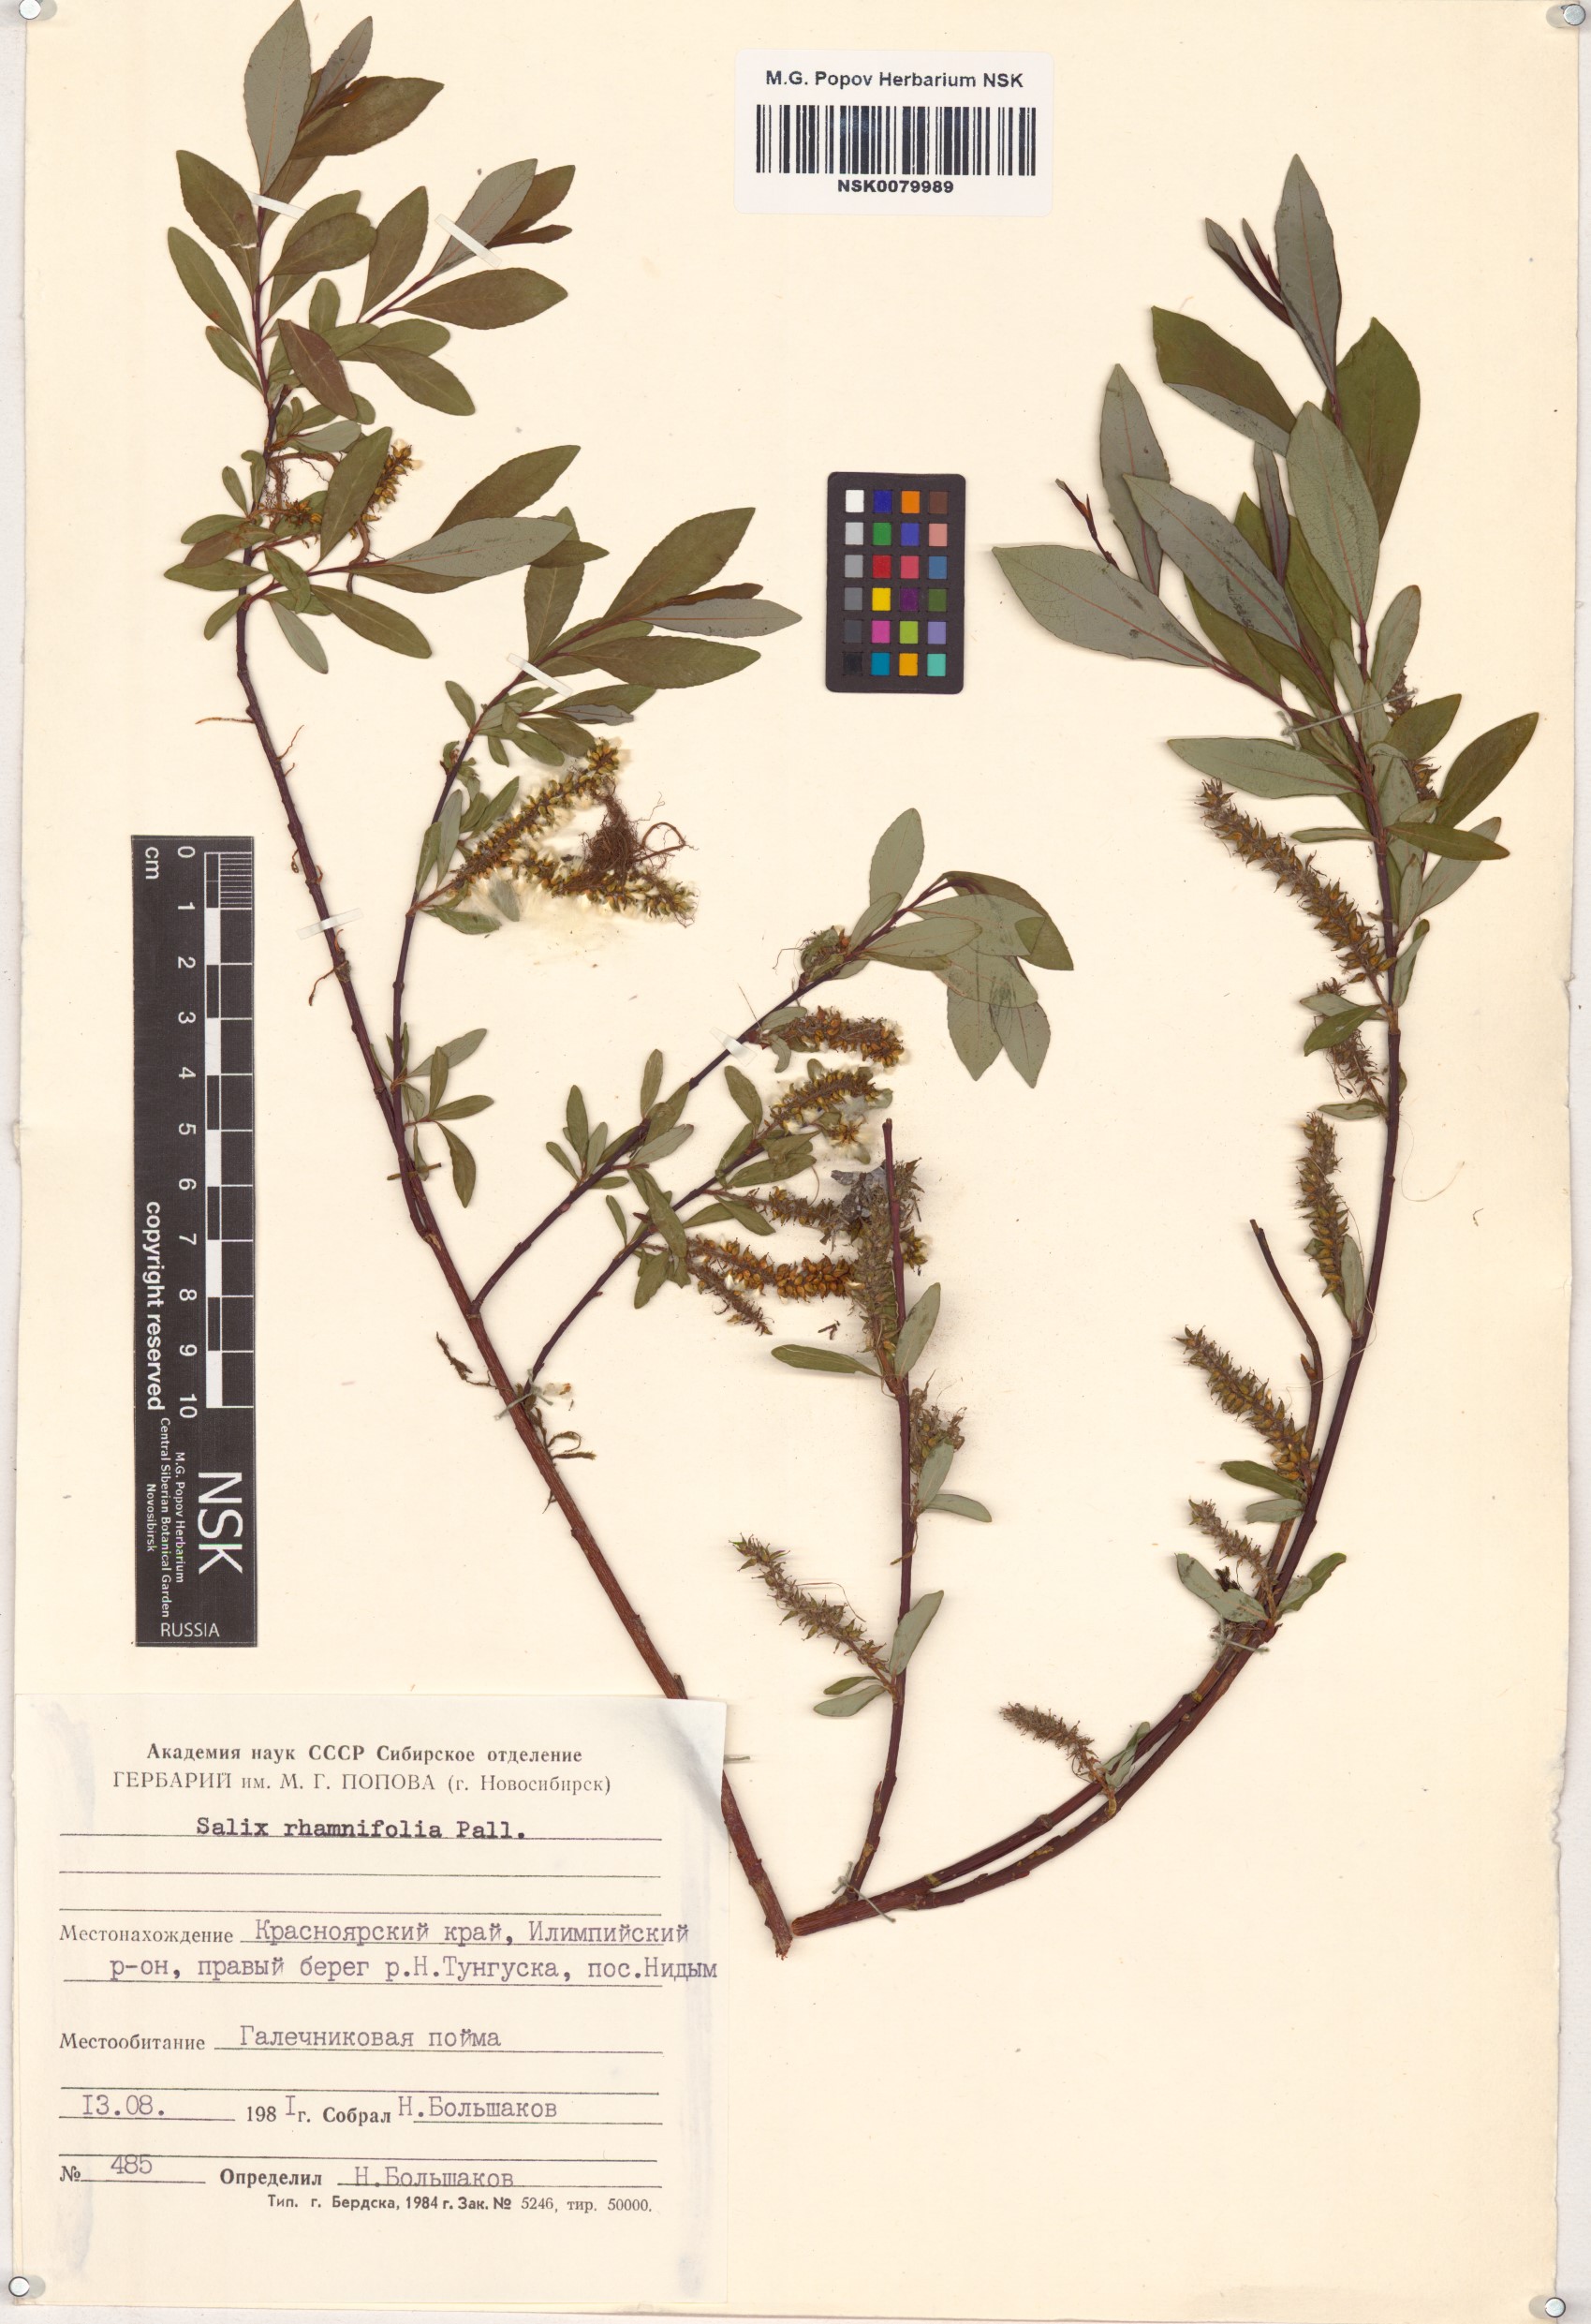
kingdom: Plantae
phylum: Tracheophyta
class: Magnoliopsida
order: Malpighiales
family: Salicaceae
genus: Salix
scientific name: Salix rhamnifolia
